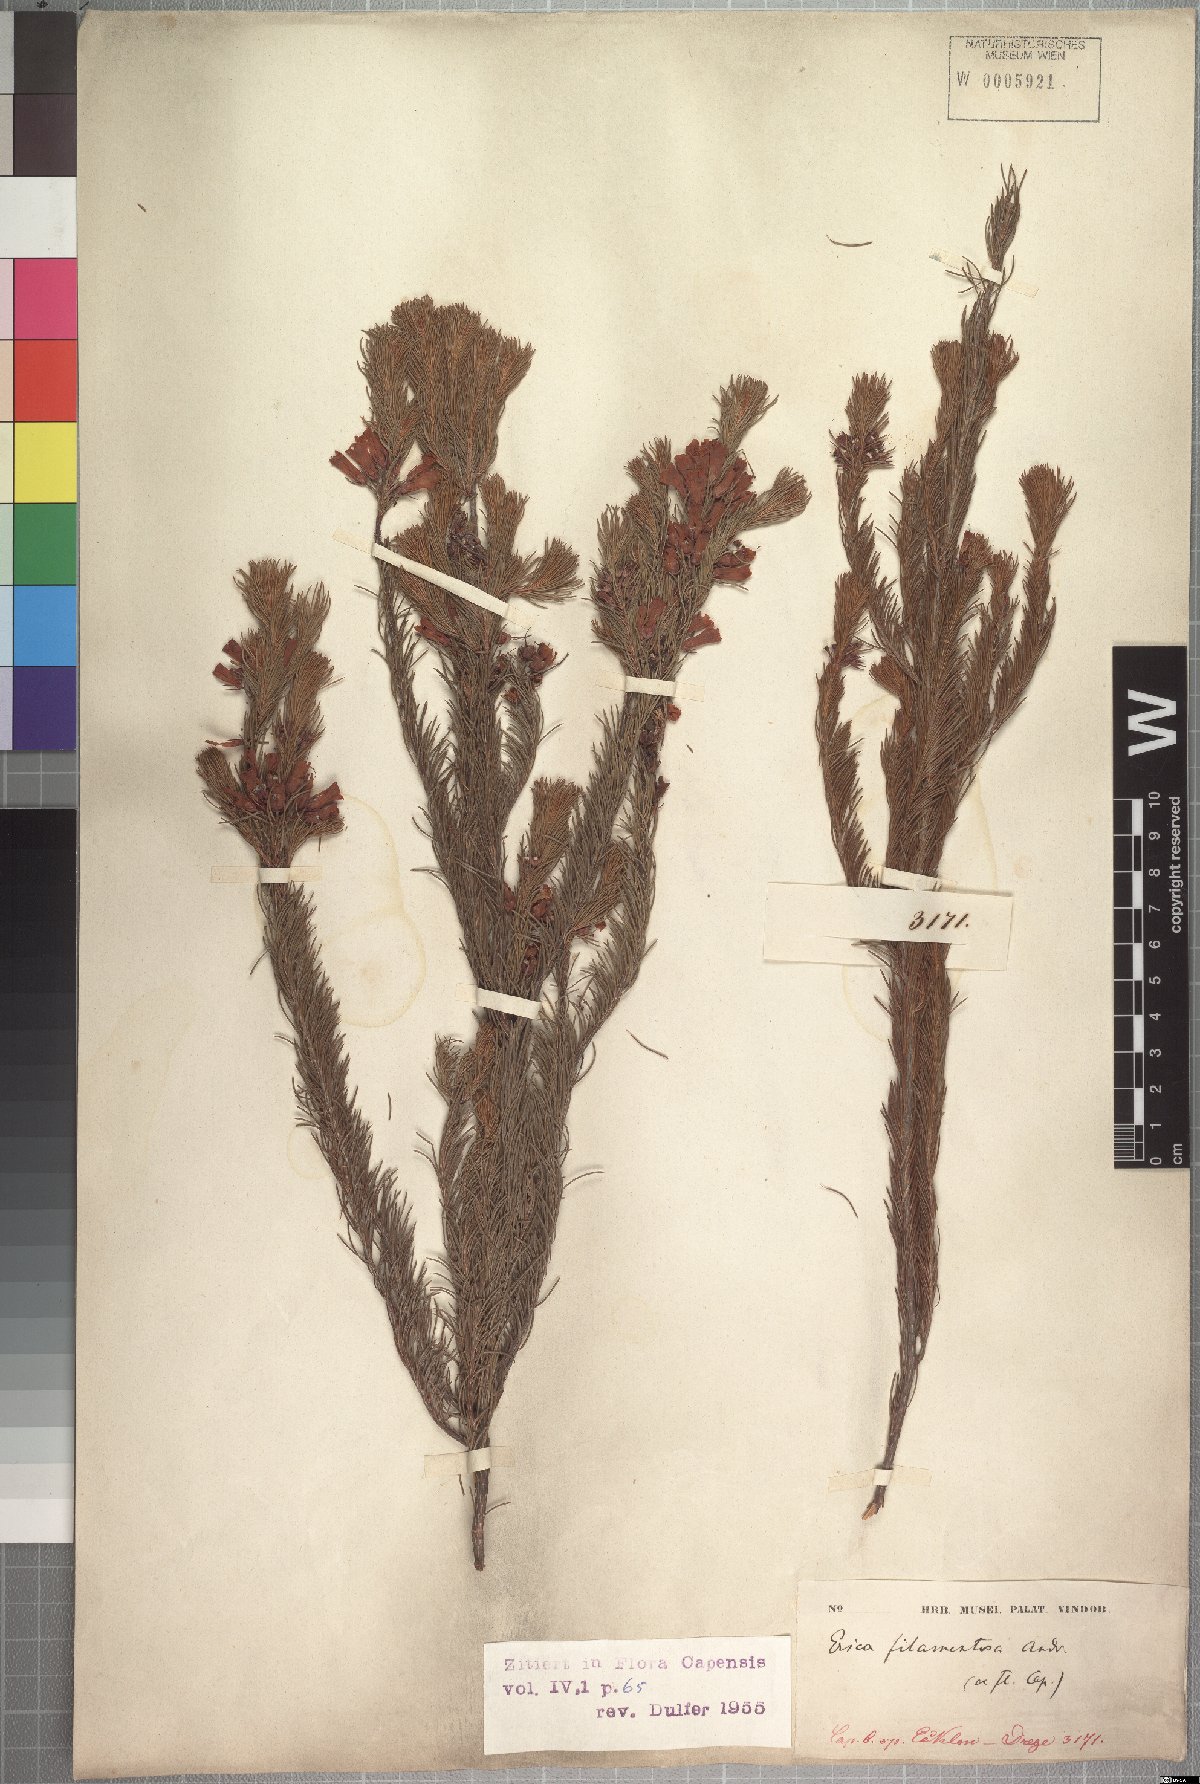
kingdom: Plantae
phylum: Tracheophyta
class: Magnoliopsida
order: Ericales
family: Ericaceae
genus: Erica
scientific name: Erica nematophylla
